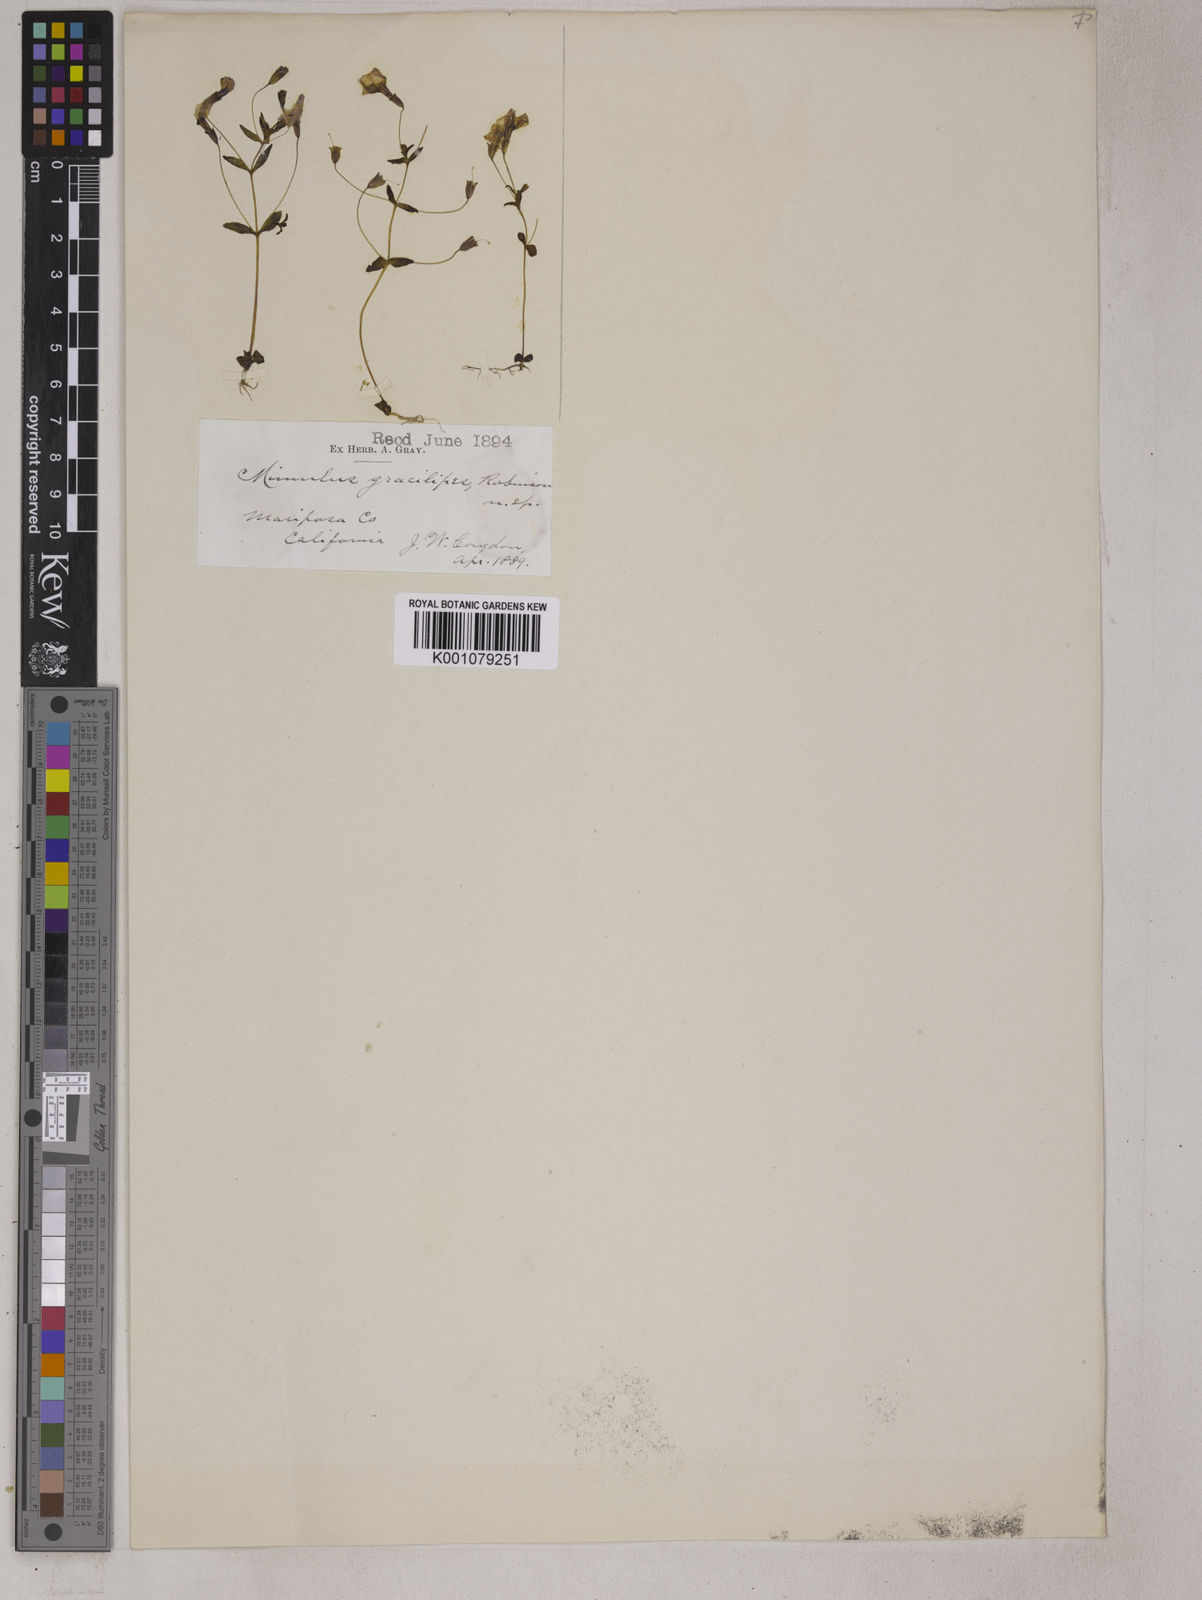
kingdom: Plantae
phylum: Tracheophyta
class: Magnoliopsida
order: Lamiales
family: Phrymaceae
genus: Erythranthe
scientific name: Erythranthe gracilipes
